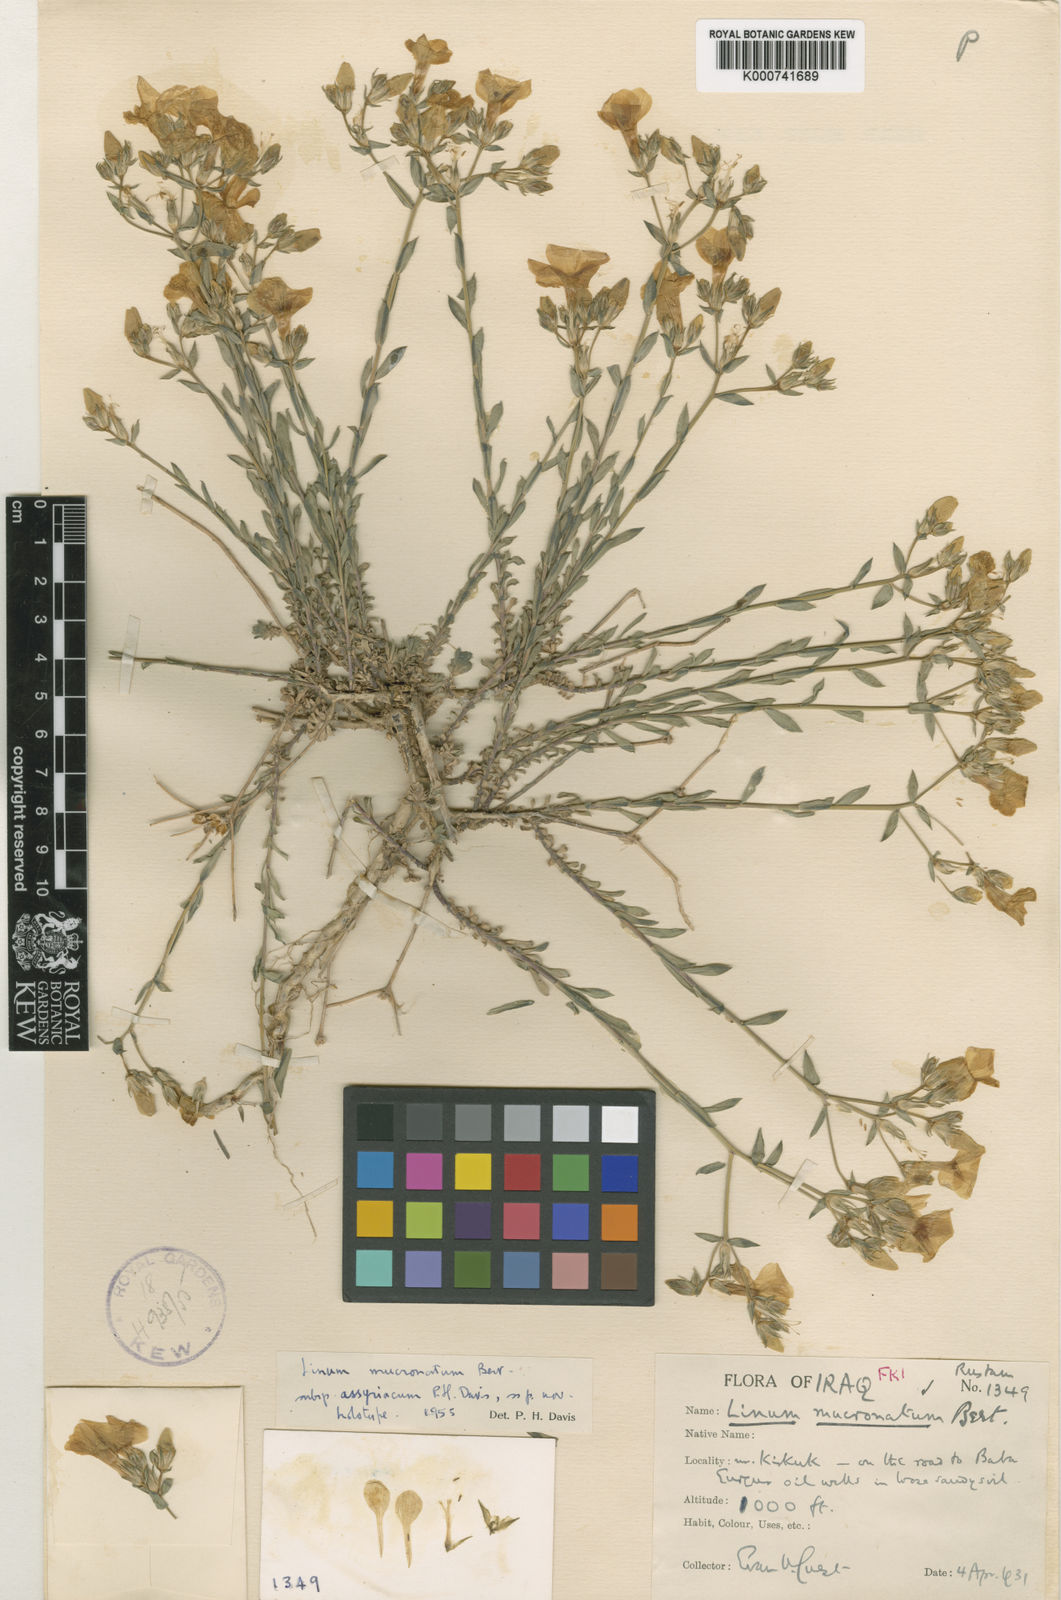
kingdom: Plantae
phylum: Tracheophyta
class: Magnoliopsida
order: Malpighiales
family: Linaceae
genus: Linum
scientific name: Linum mucronatum
